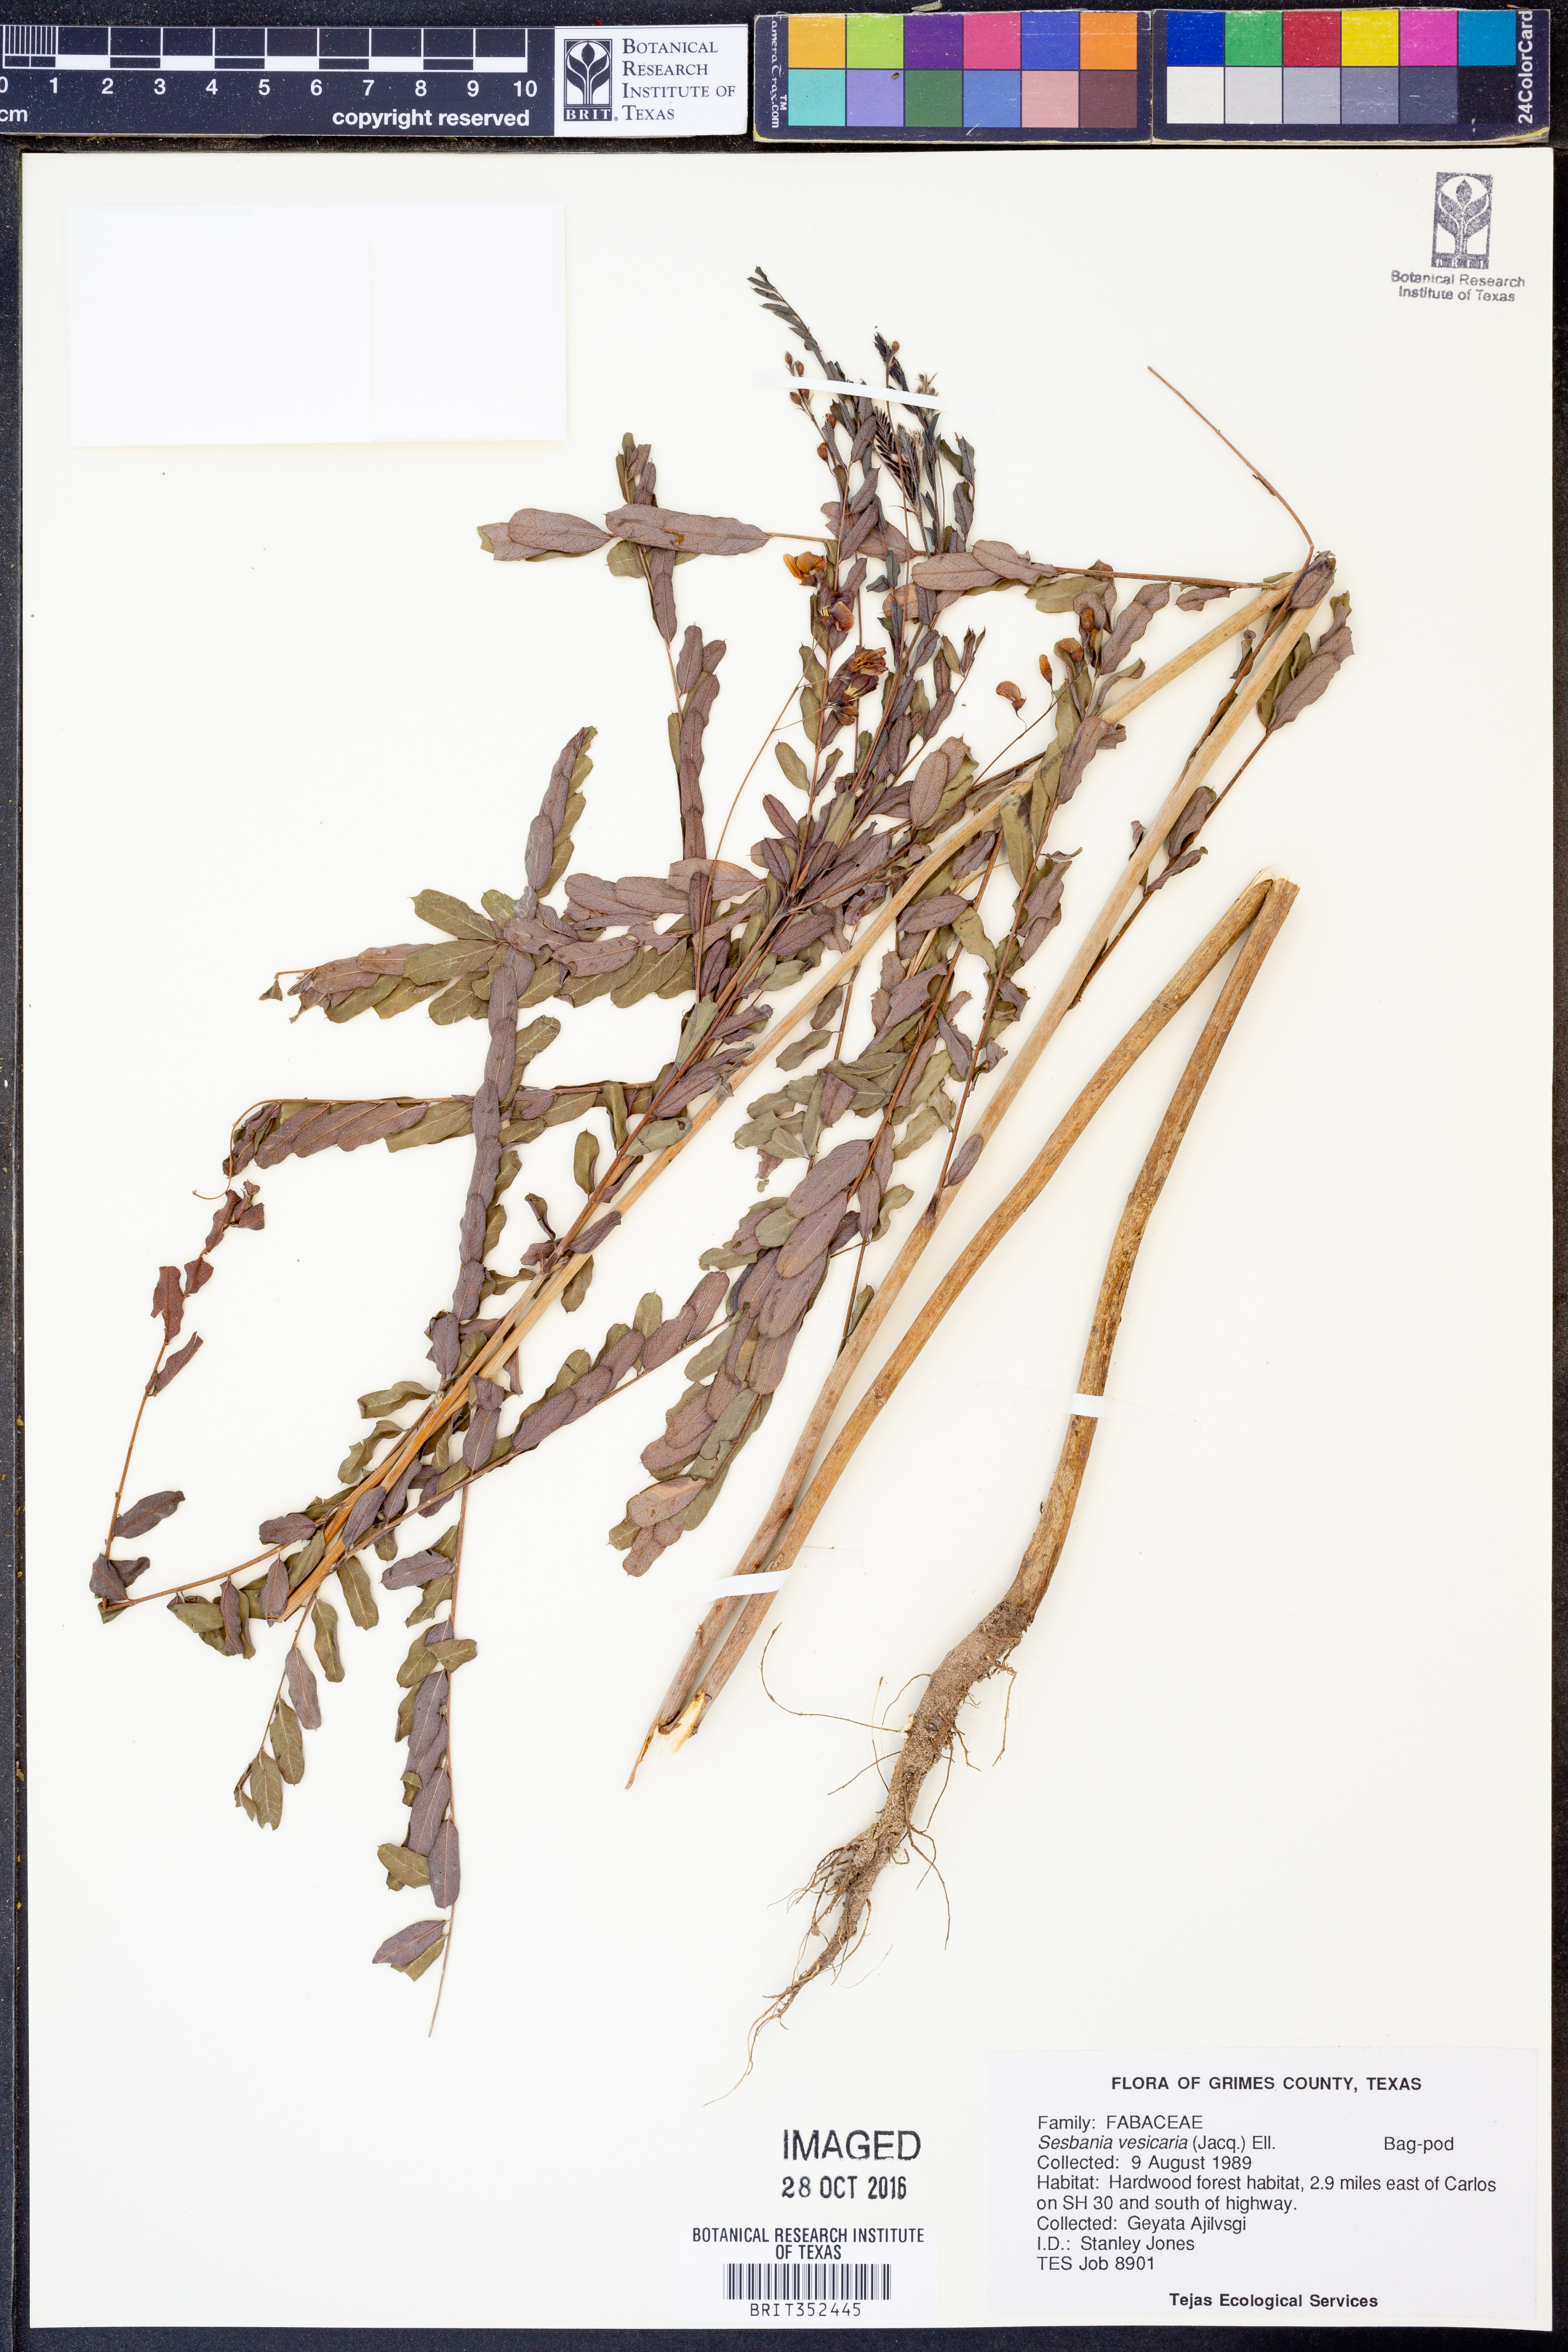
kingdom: Plantae
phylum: Tracheophyta
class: Magnoliopsida
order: Fabales
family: Fabaceae
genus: Sesbania
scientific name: Sesbania vesicaria
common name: Bagpod
